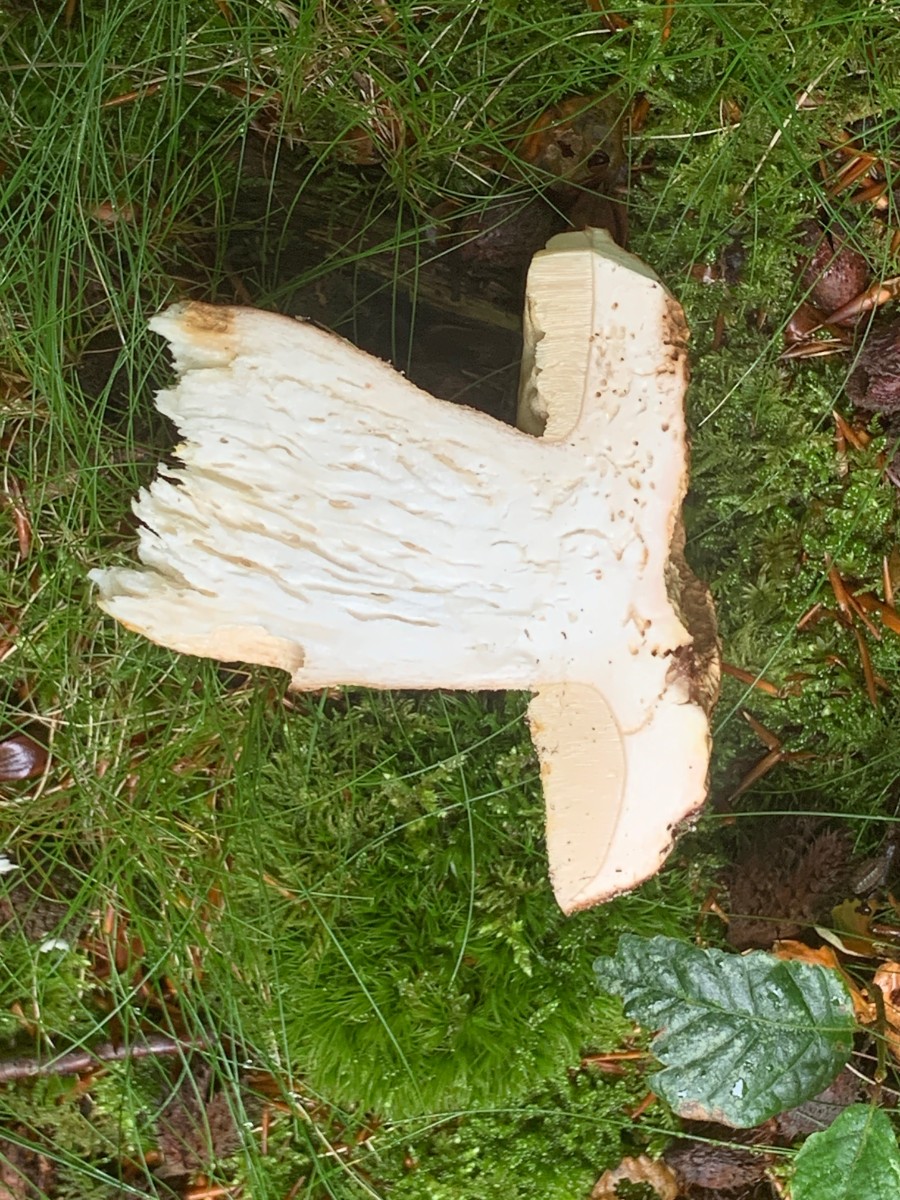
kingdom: Fungi
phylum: Basidiomycota
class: Agaricomycetes
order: Boletales
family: Boletaceae
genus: Boletus
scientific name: Boletus edulis
